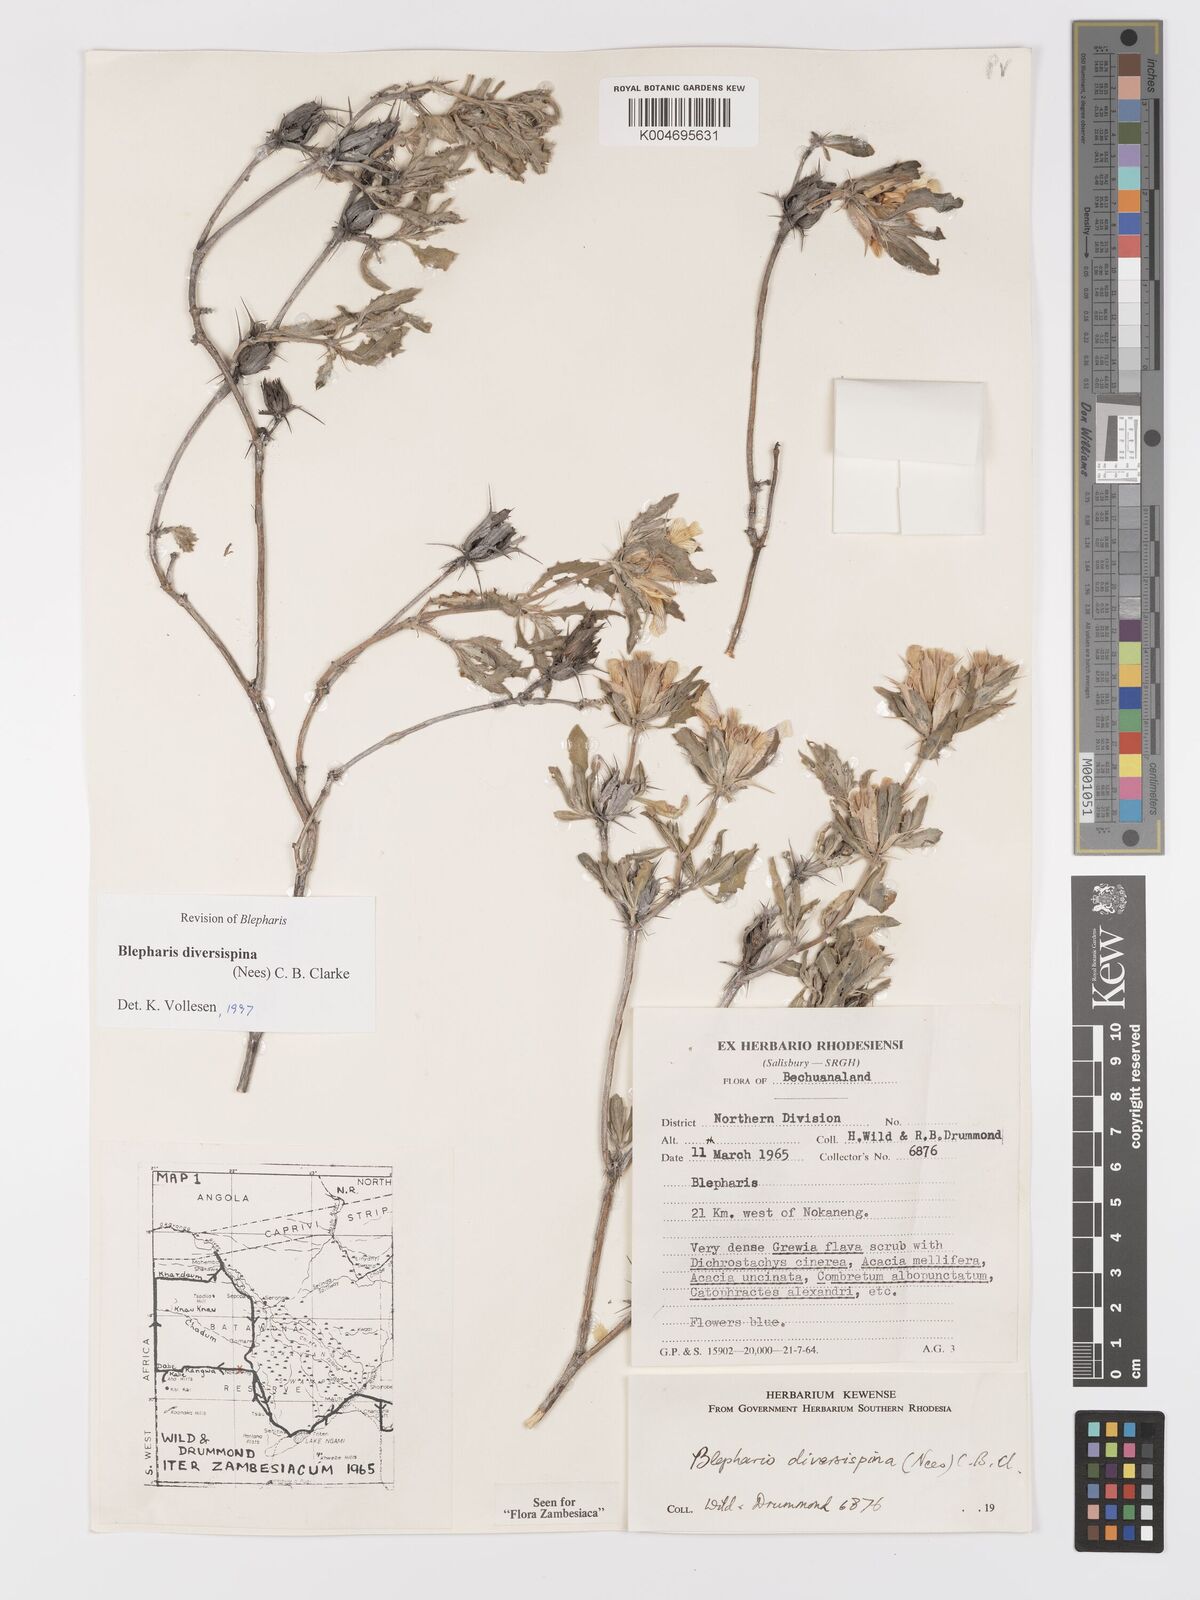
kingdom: Plantae
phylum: Tracheophyta
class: Magnoliopsida
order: Lamiales
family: Acanthaceae
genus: Blepharis
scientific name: Blepharis diversispina
